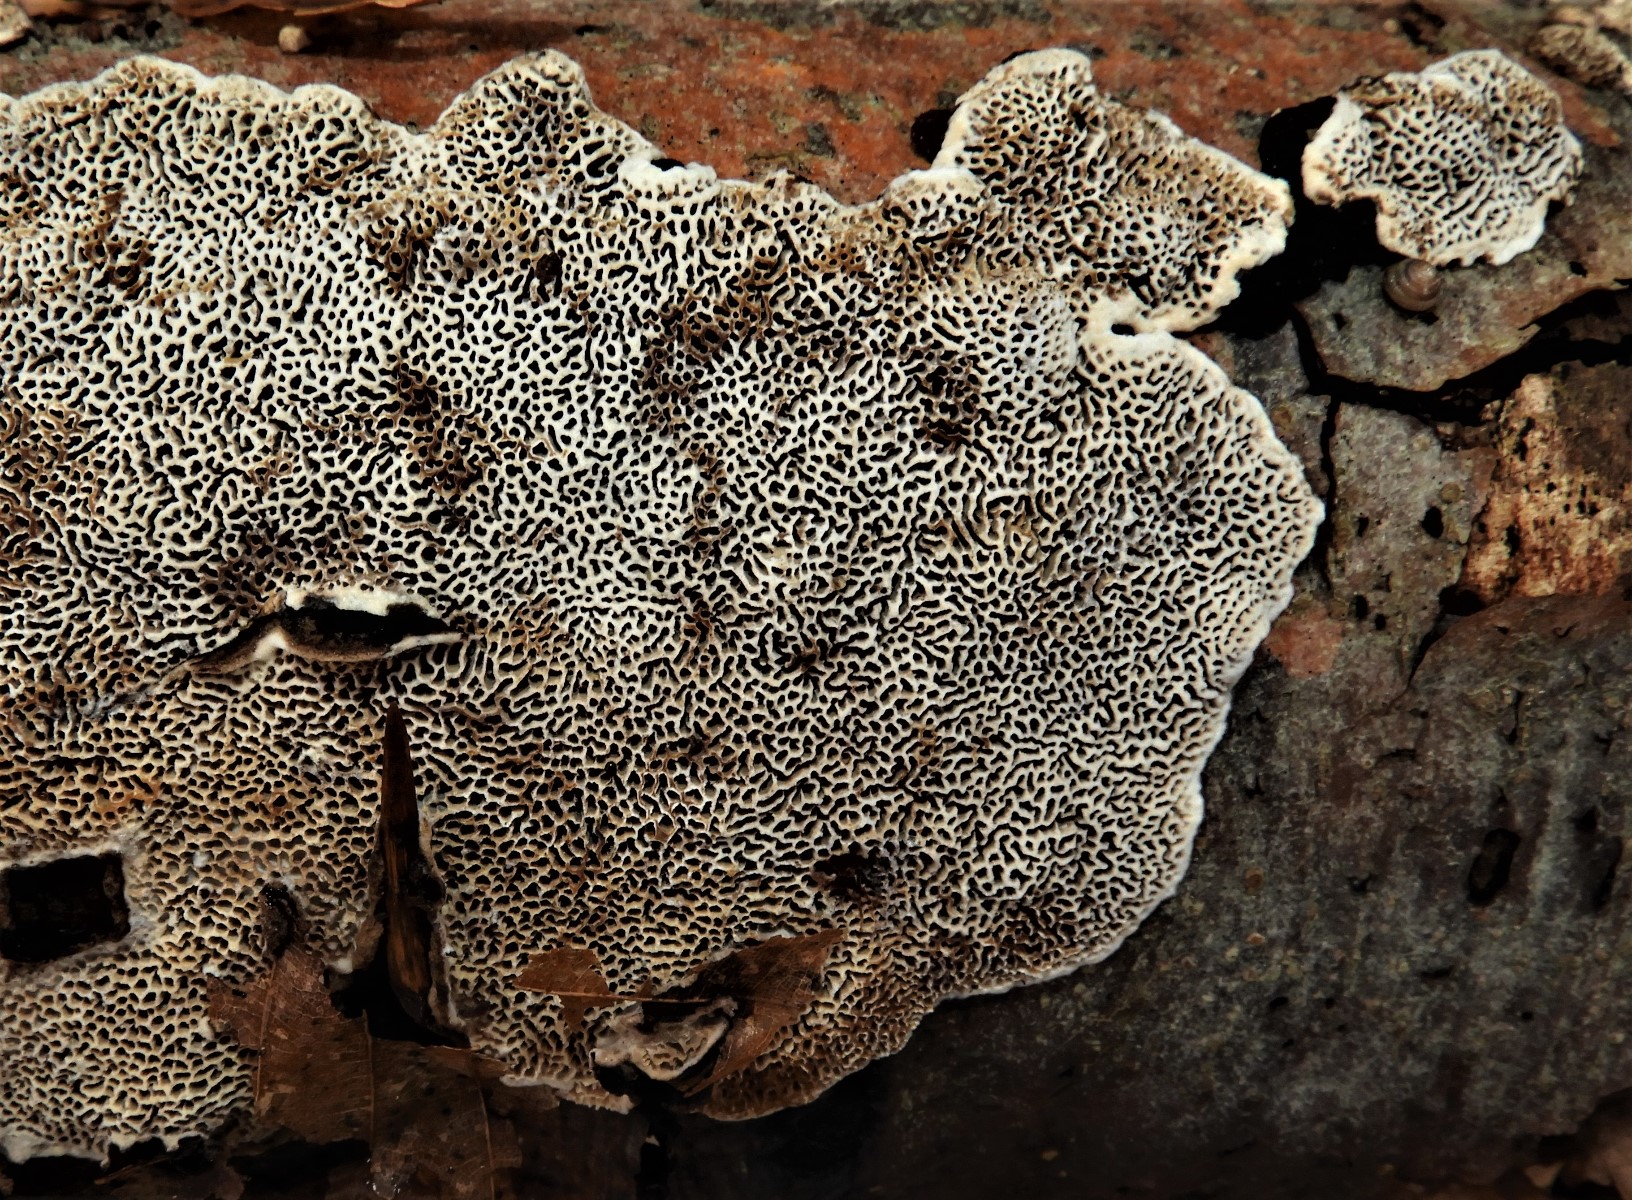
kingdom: Fungi
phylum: Basidiomycota
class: Agaricomycetes
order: Polyporales
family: Polyporaceae
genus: Podofomes
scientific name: Podofomes mollis
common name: blød begporesvamp
